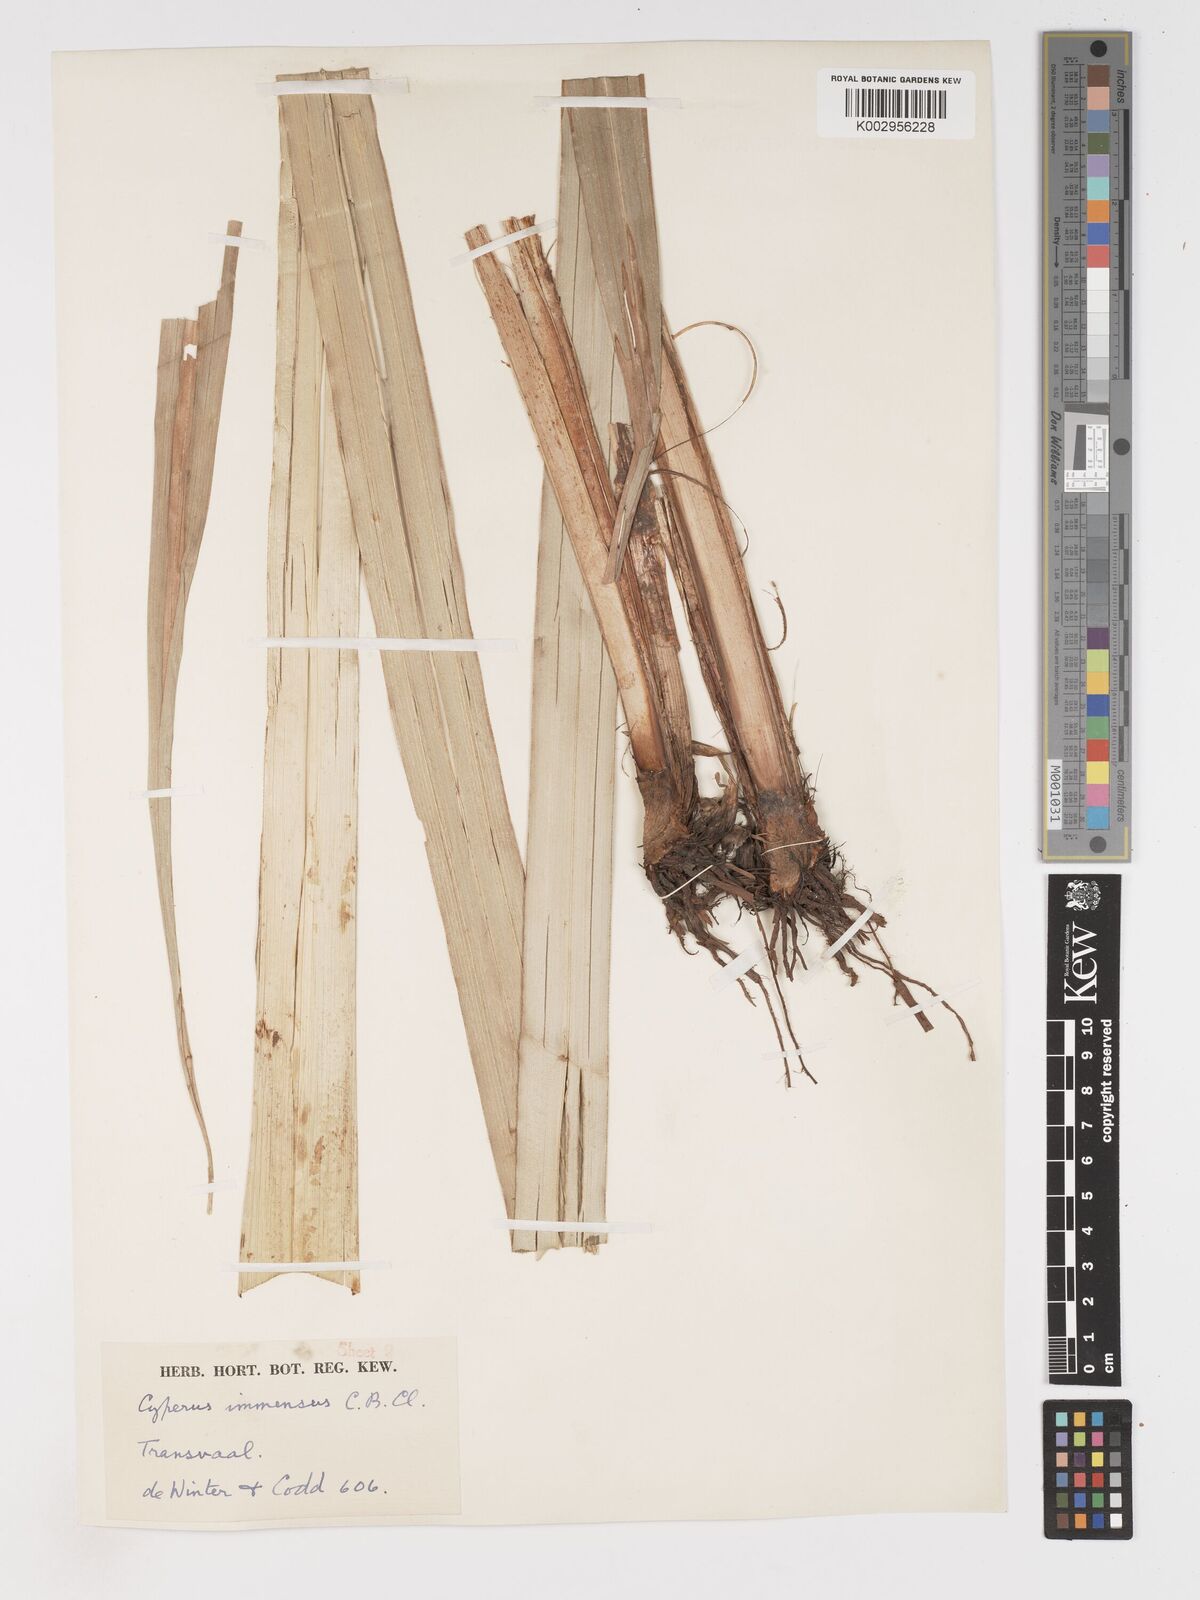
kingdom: Plantae
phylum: Tracheophyta
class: Liliopsida
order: Poales
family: Cyperaceae
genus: Cyperus
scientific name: Cyperus dives
